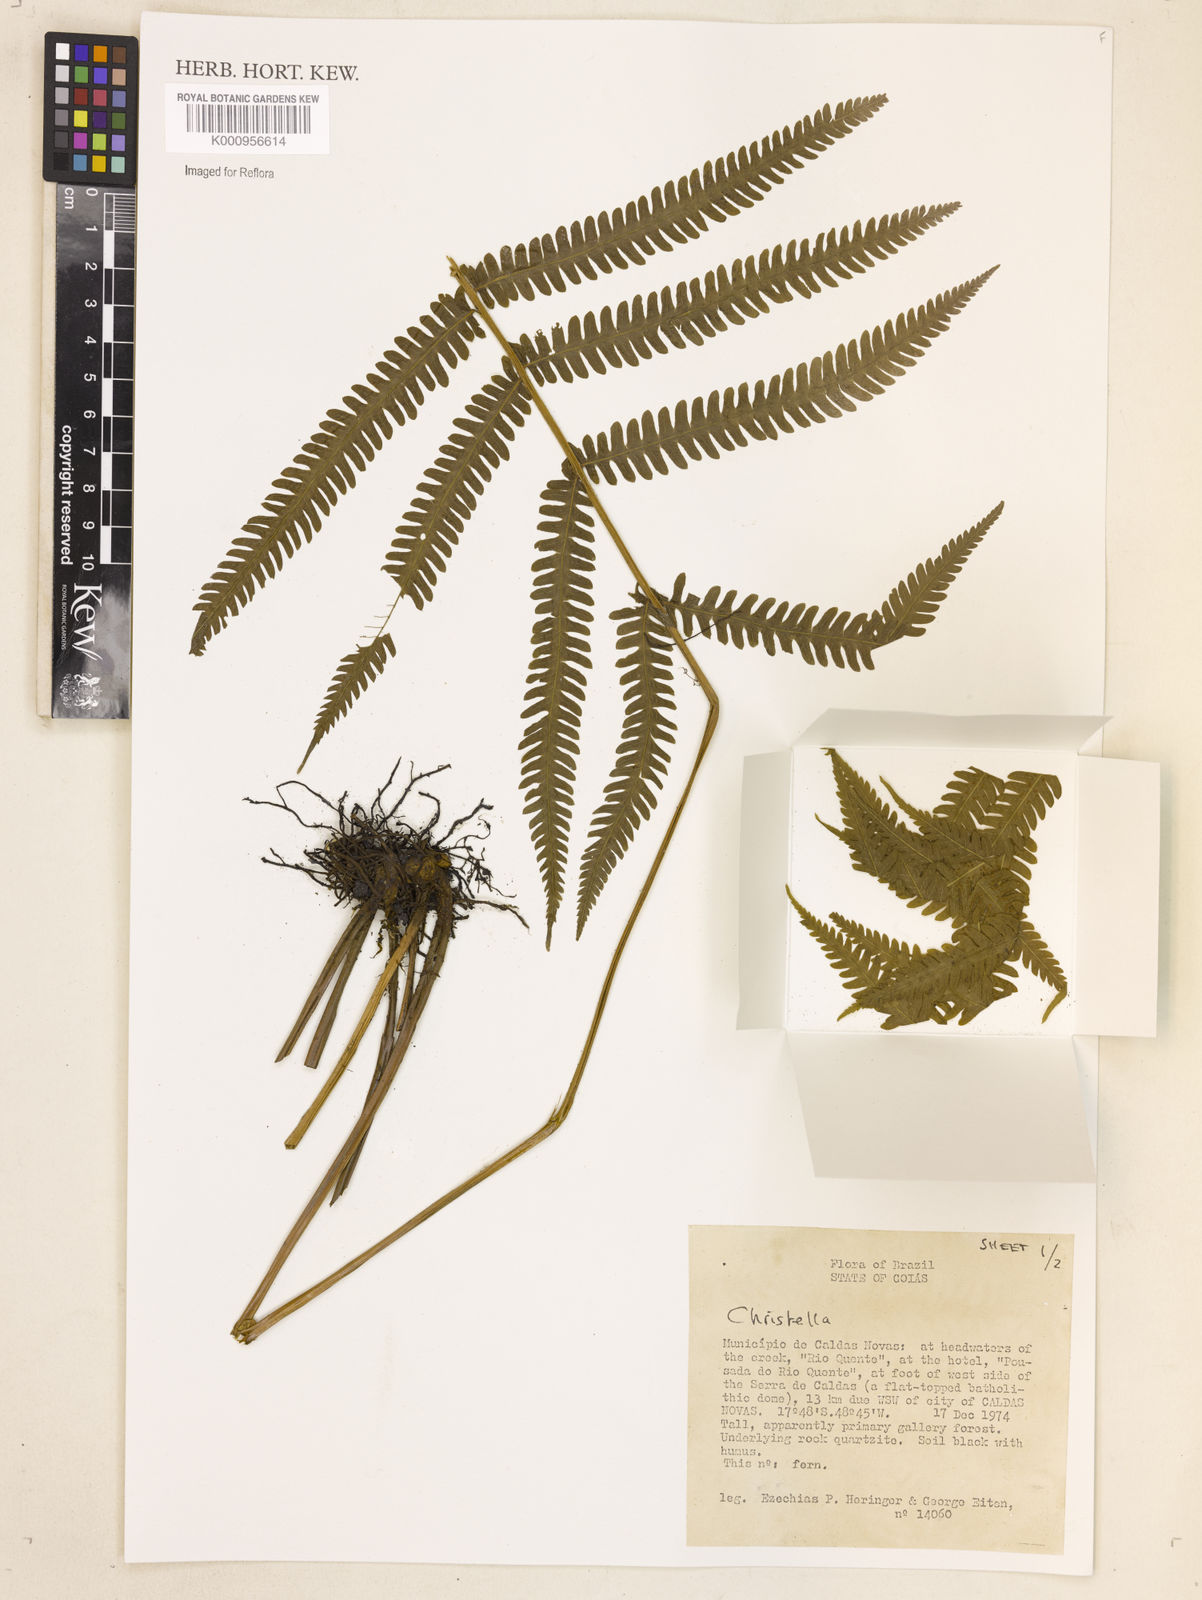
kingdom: Plantae
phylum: Tracheophyta
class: Polypodiopsida
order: Polypodiales
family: Thelypteridaceae
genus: Christella
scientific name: Christella
